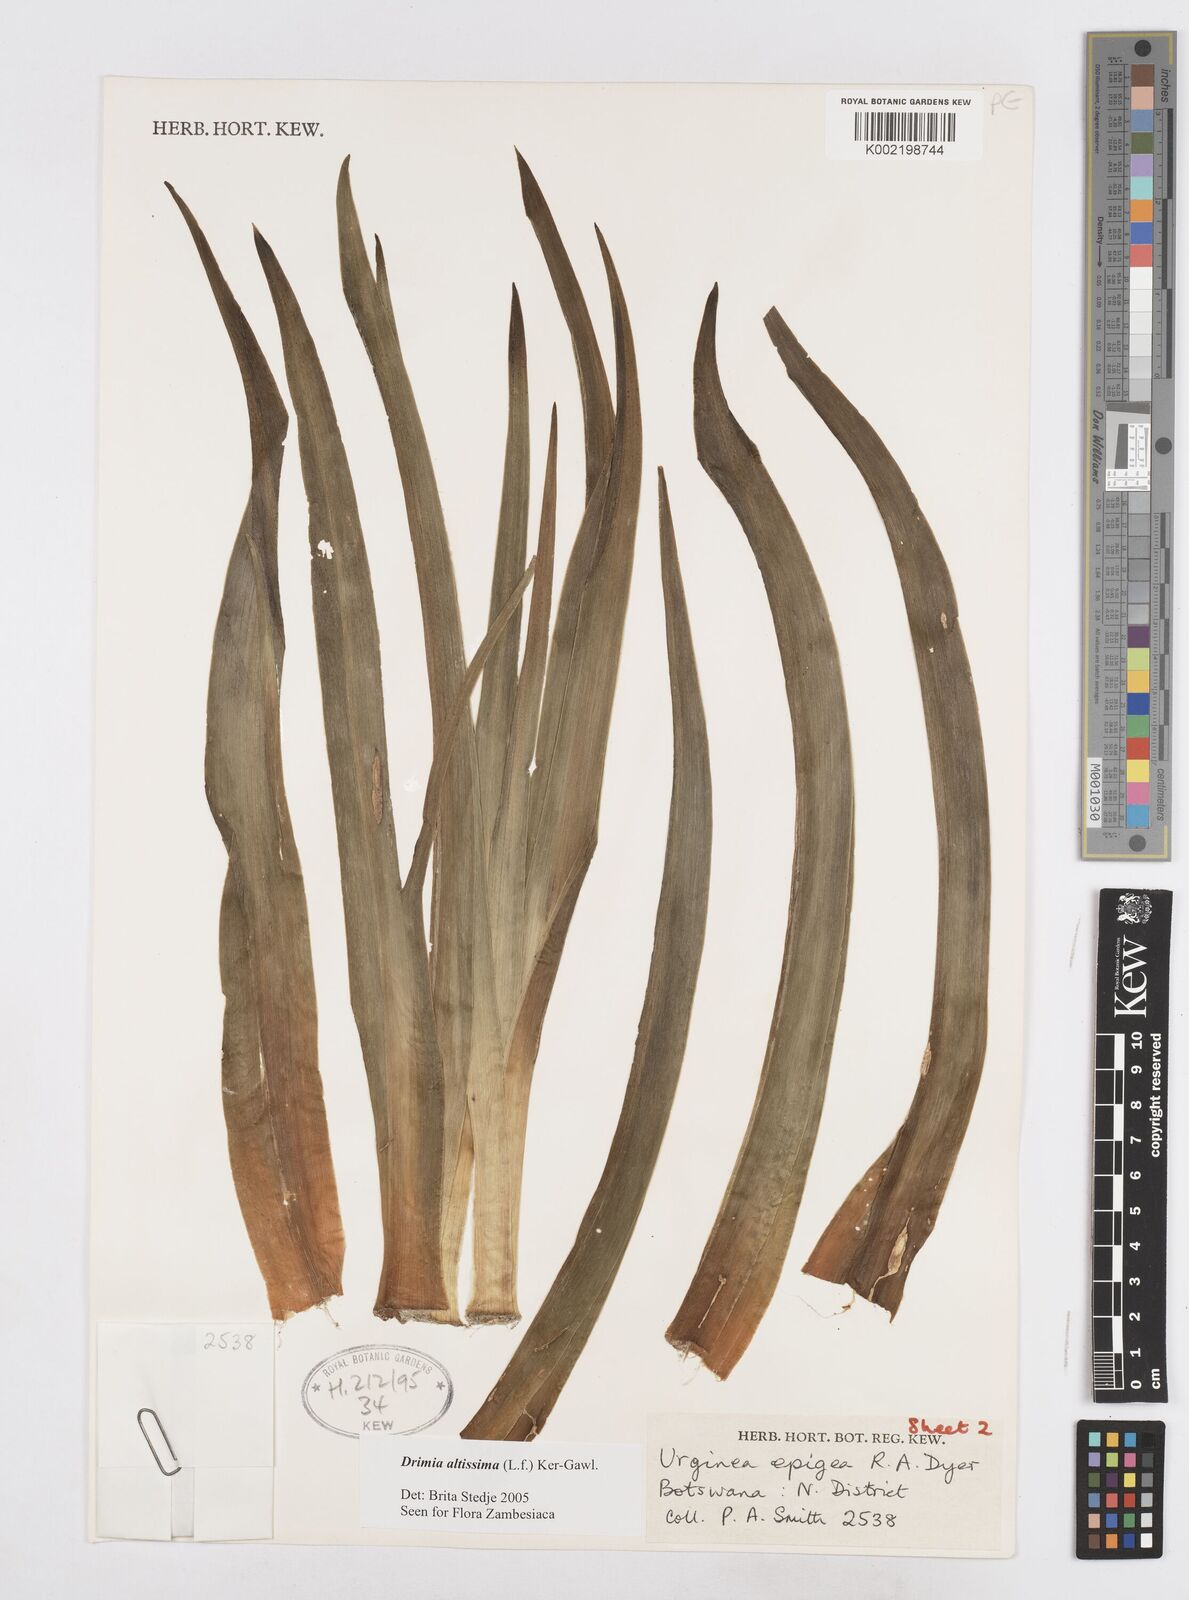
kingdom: Plantae
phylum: Tracheophyta
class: Liliopsida
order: Asparagales
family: Asparagaceae
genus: Drimia
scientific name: Drimia altissima
